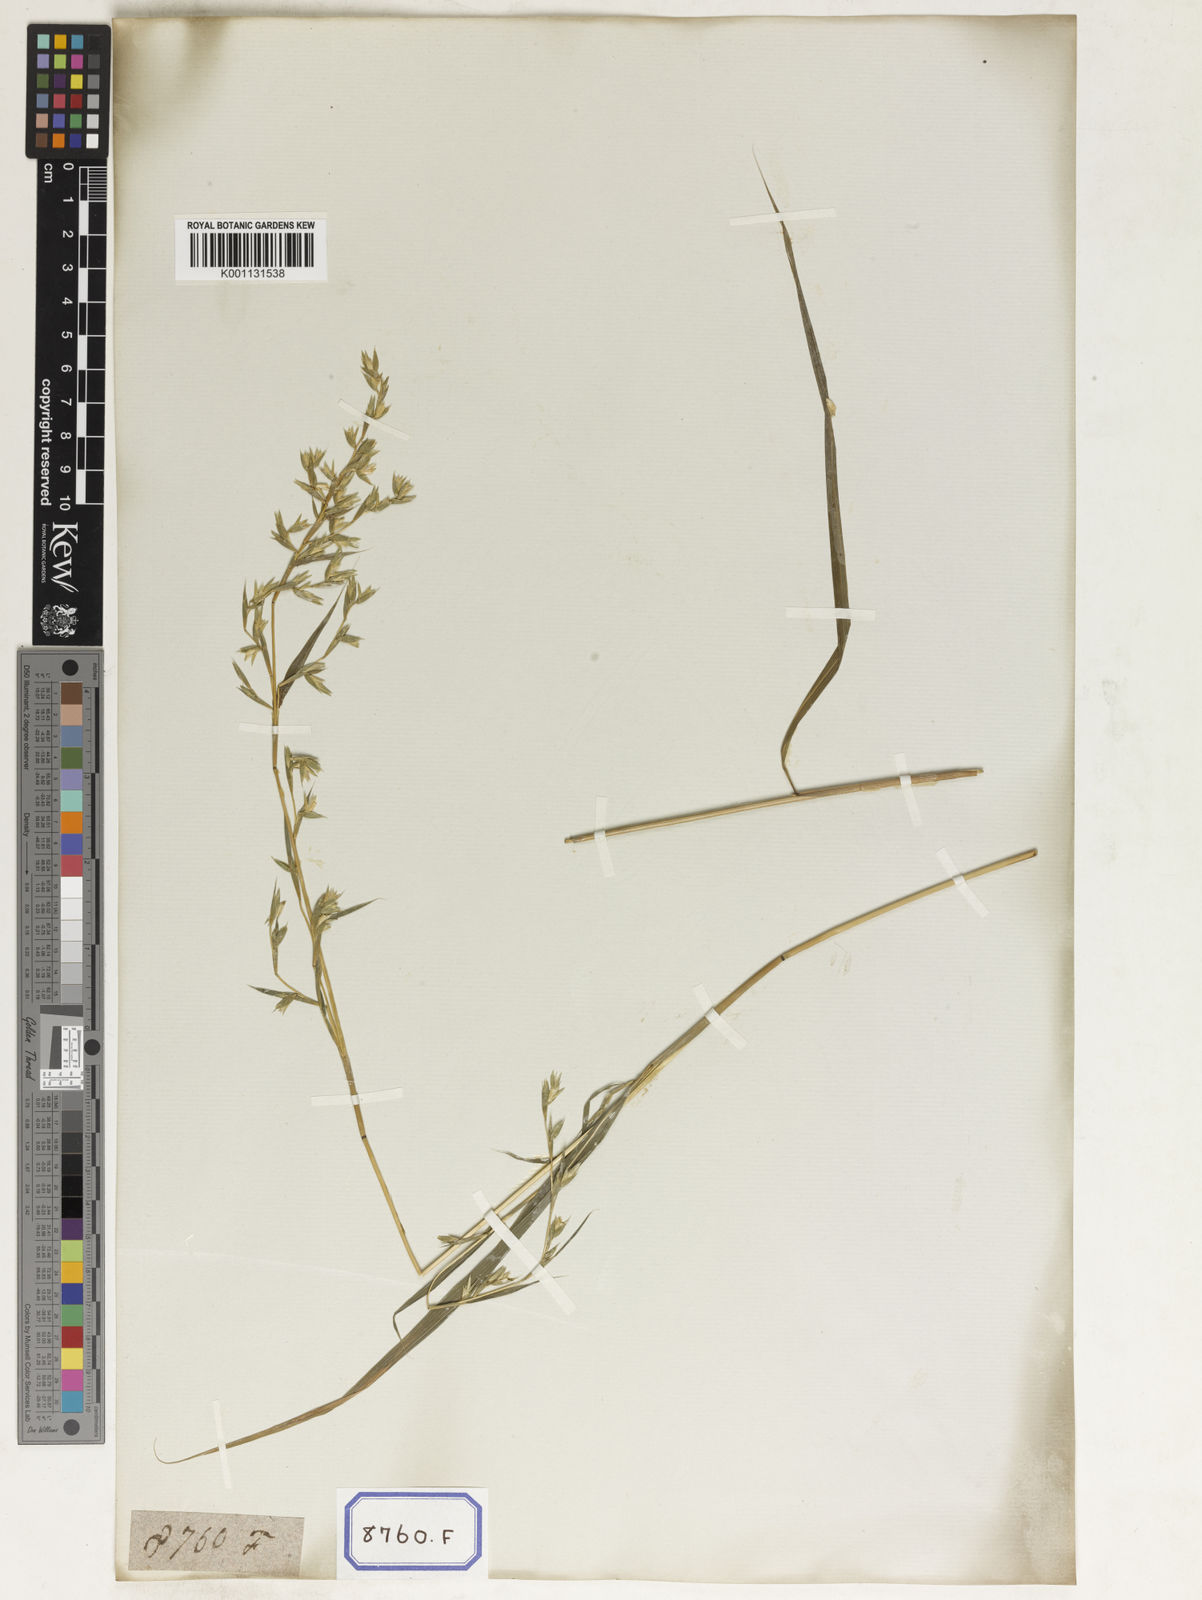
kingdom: Plantae
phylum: Tracheophyta
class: Liliopsida
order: Poales
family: Poaceae
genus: Apluda
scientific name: Apluda
